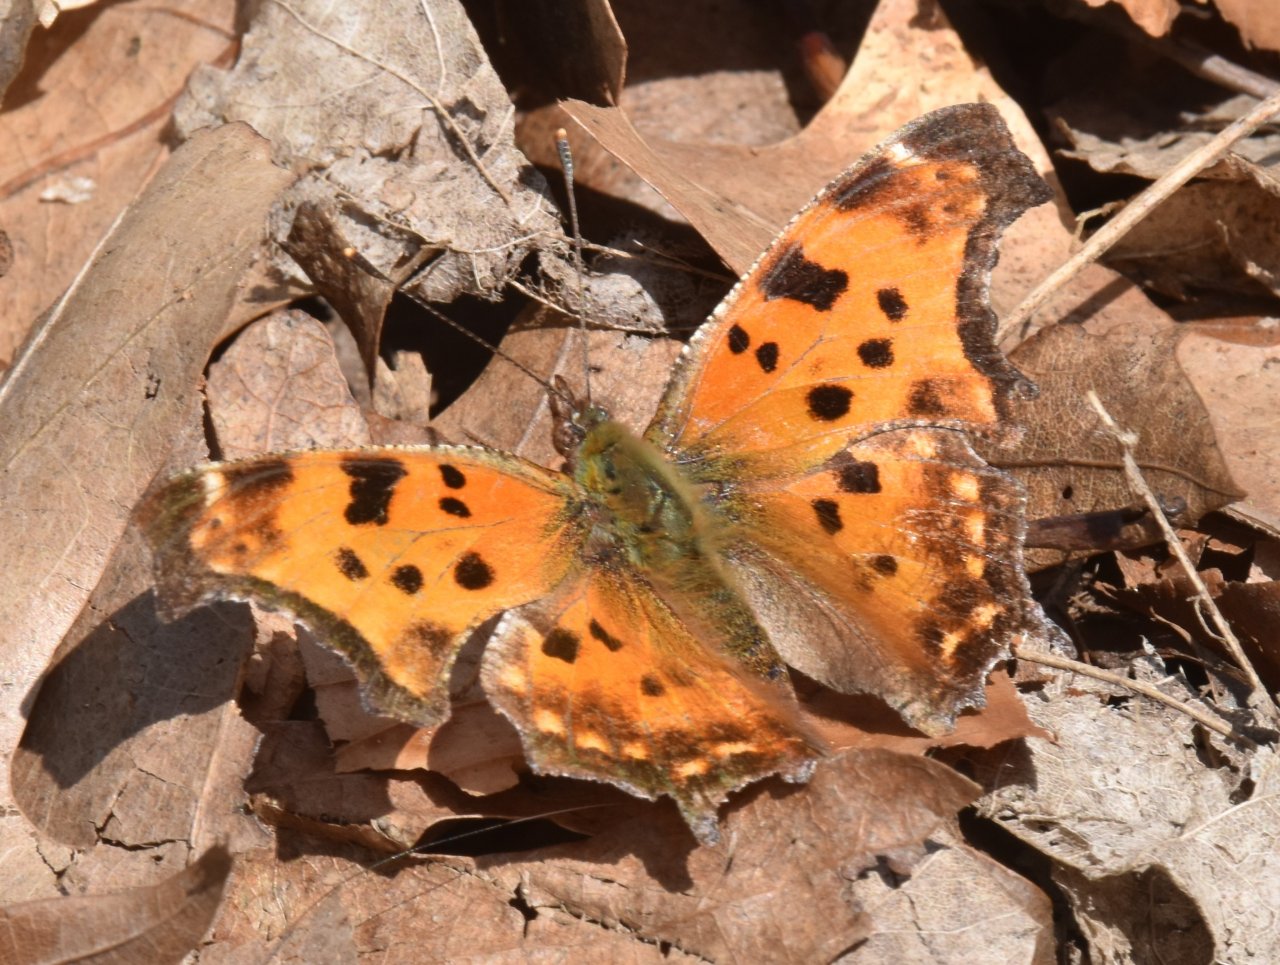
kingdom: Animalia
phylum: Arthropoda
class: Insecta
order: Lepidoptera
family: Nymphalidae
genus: Polygonia
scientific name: Polygonia comma
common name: Eastern Comma
